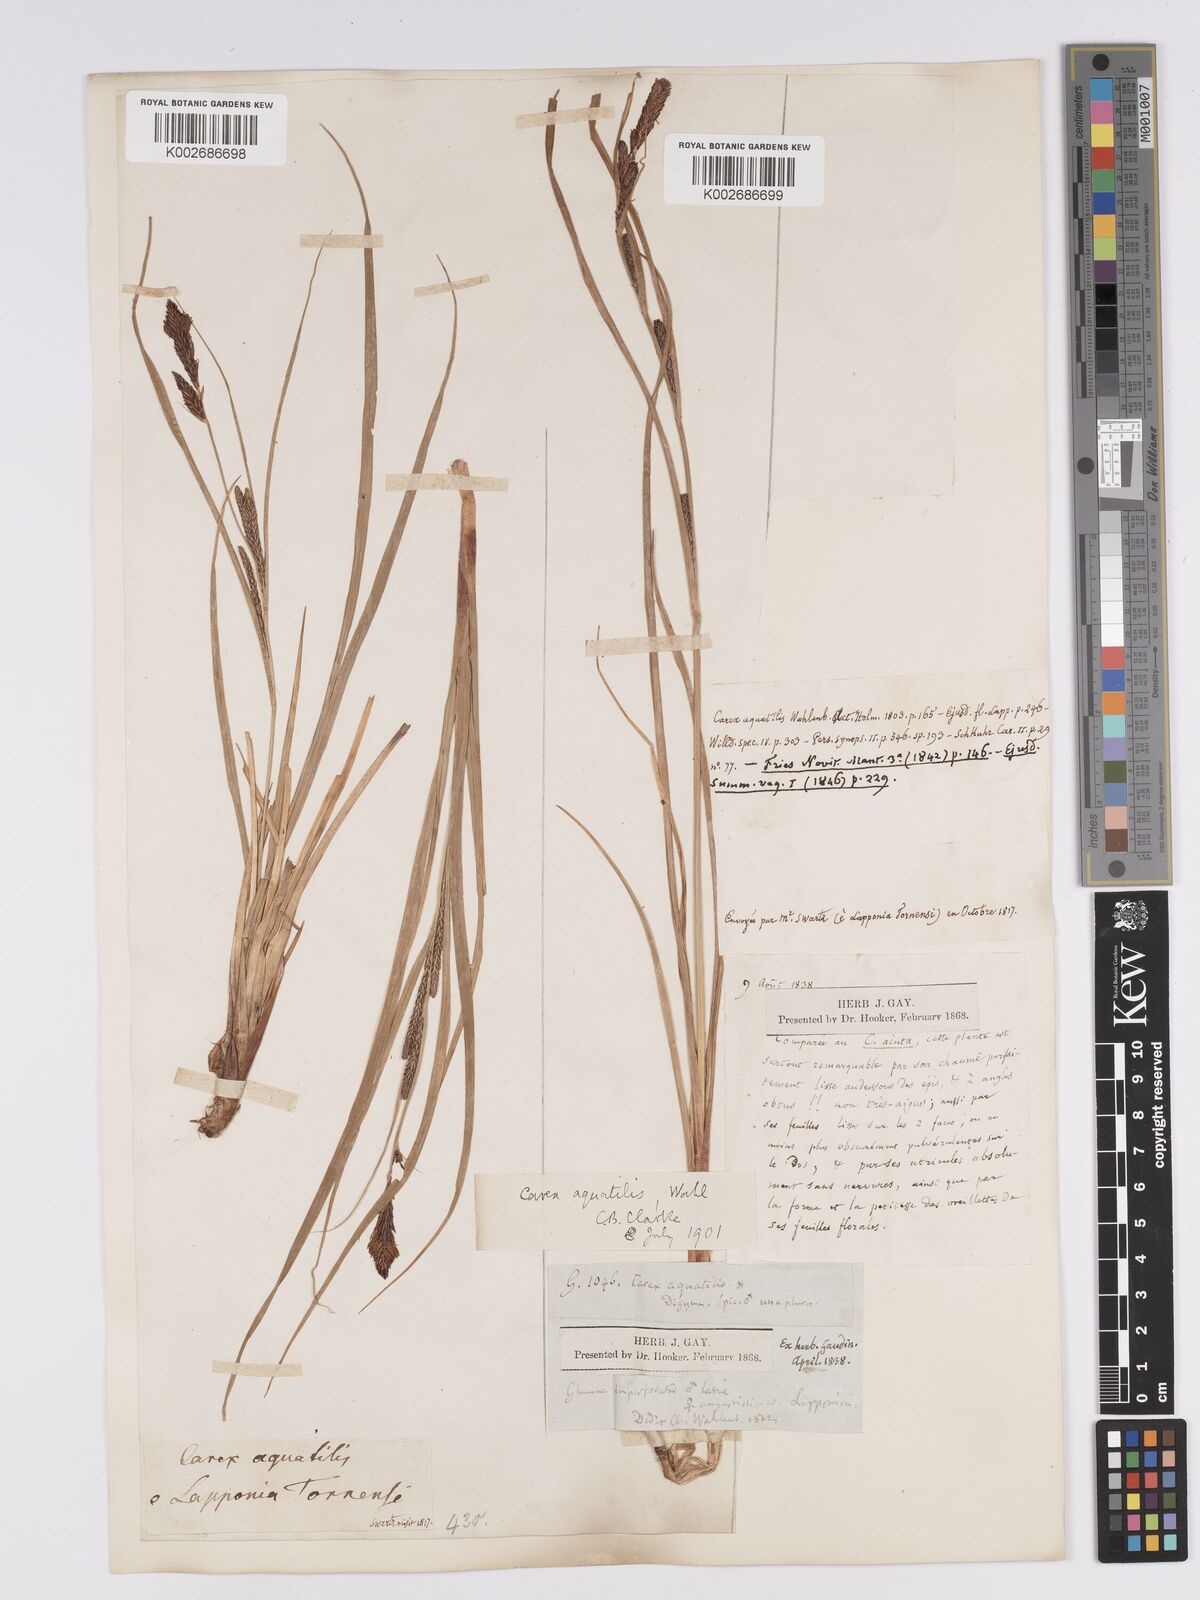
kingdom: Plantae
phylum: Tracheophyta
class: Liliopsida
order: Poales
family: Cyperaceae
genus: Carex
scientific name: Carex aquatilis
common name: Water sedge
